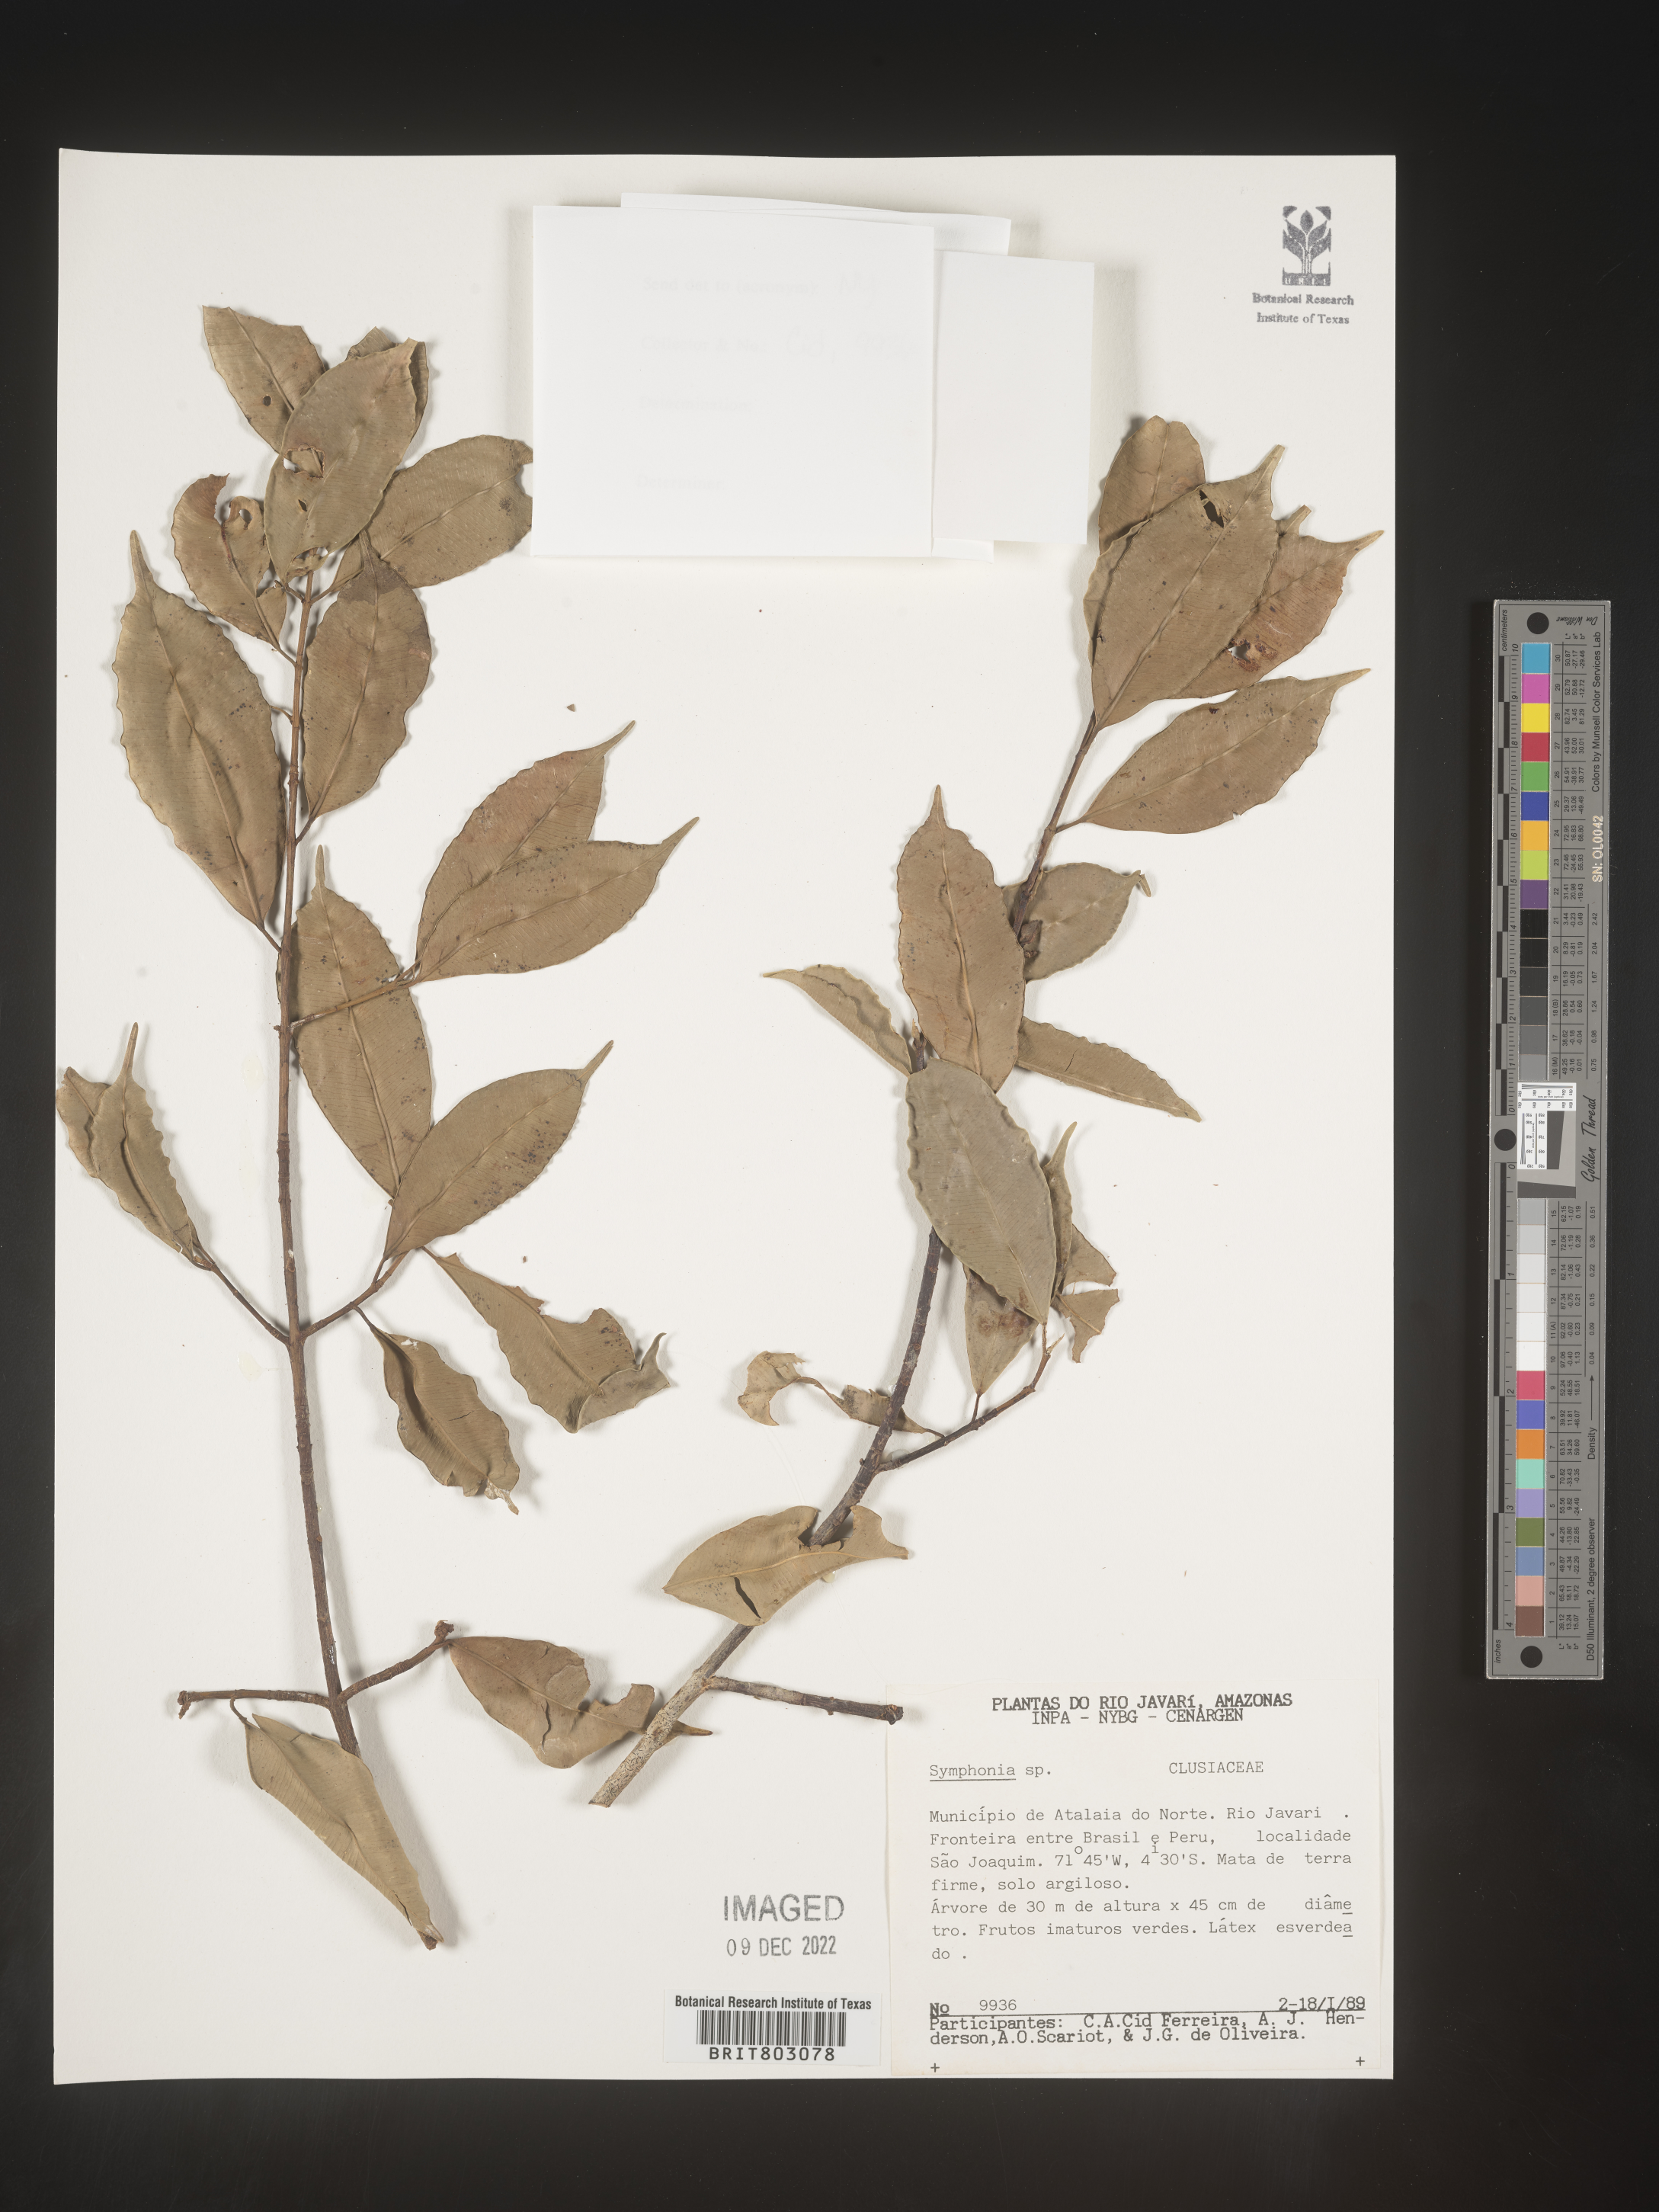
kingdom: Plantae
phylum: Tracheophyta
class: Magnoliopsida
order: Malpighiales
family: Clusiaceae
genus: Symphonia
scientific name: Symphonia
